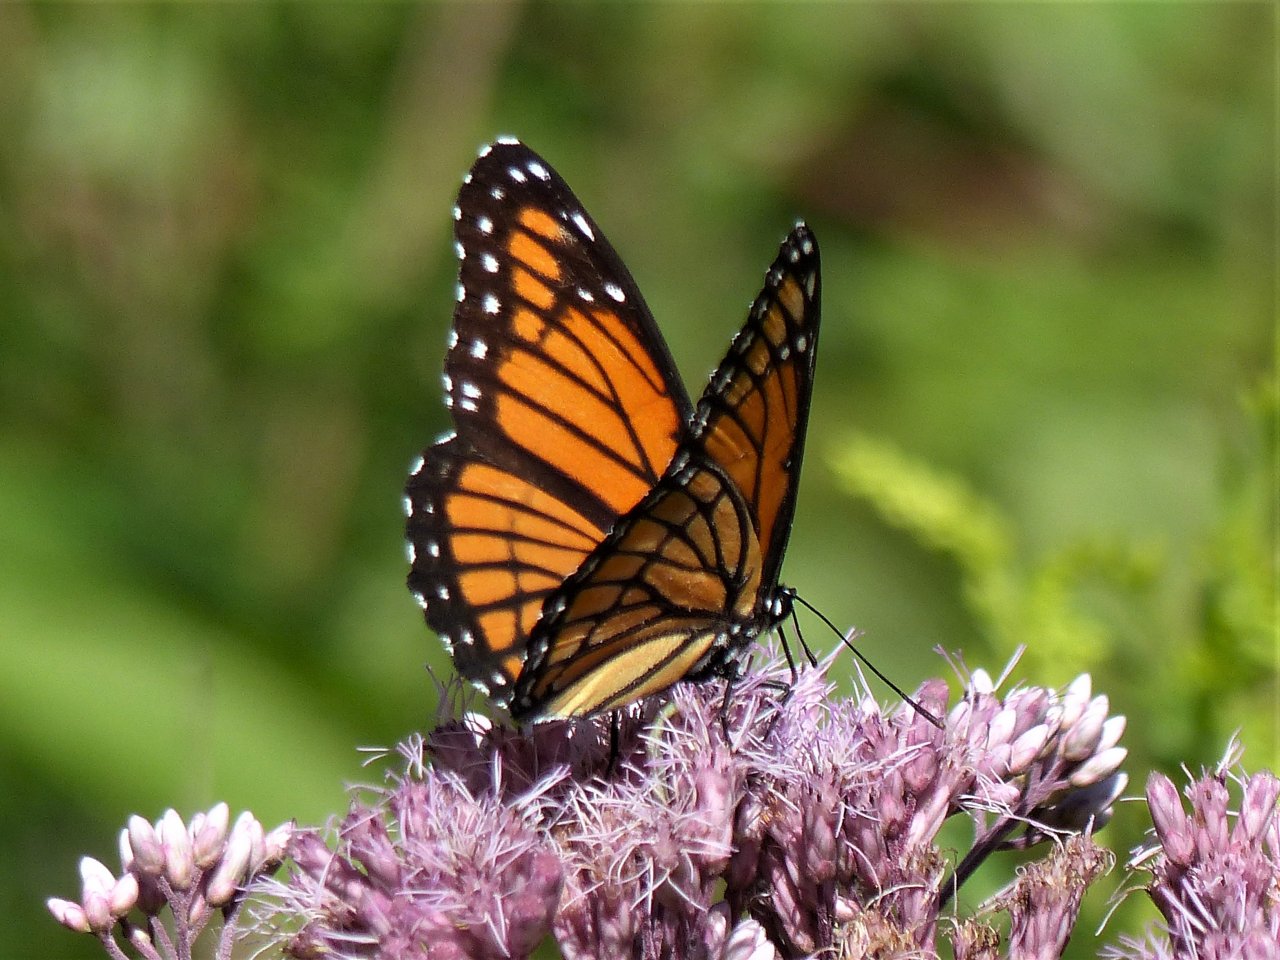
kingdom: Animalia
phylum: Arthropoda
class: Insecta
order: Lepidoptera
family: Nymphalidae
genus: Limenitis
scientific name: Limenitis archippus
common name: Viceroy
